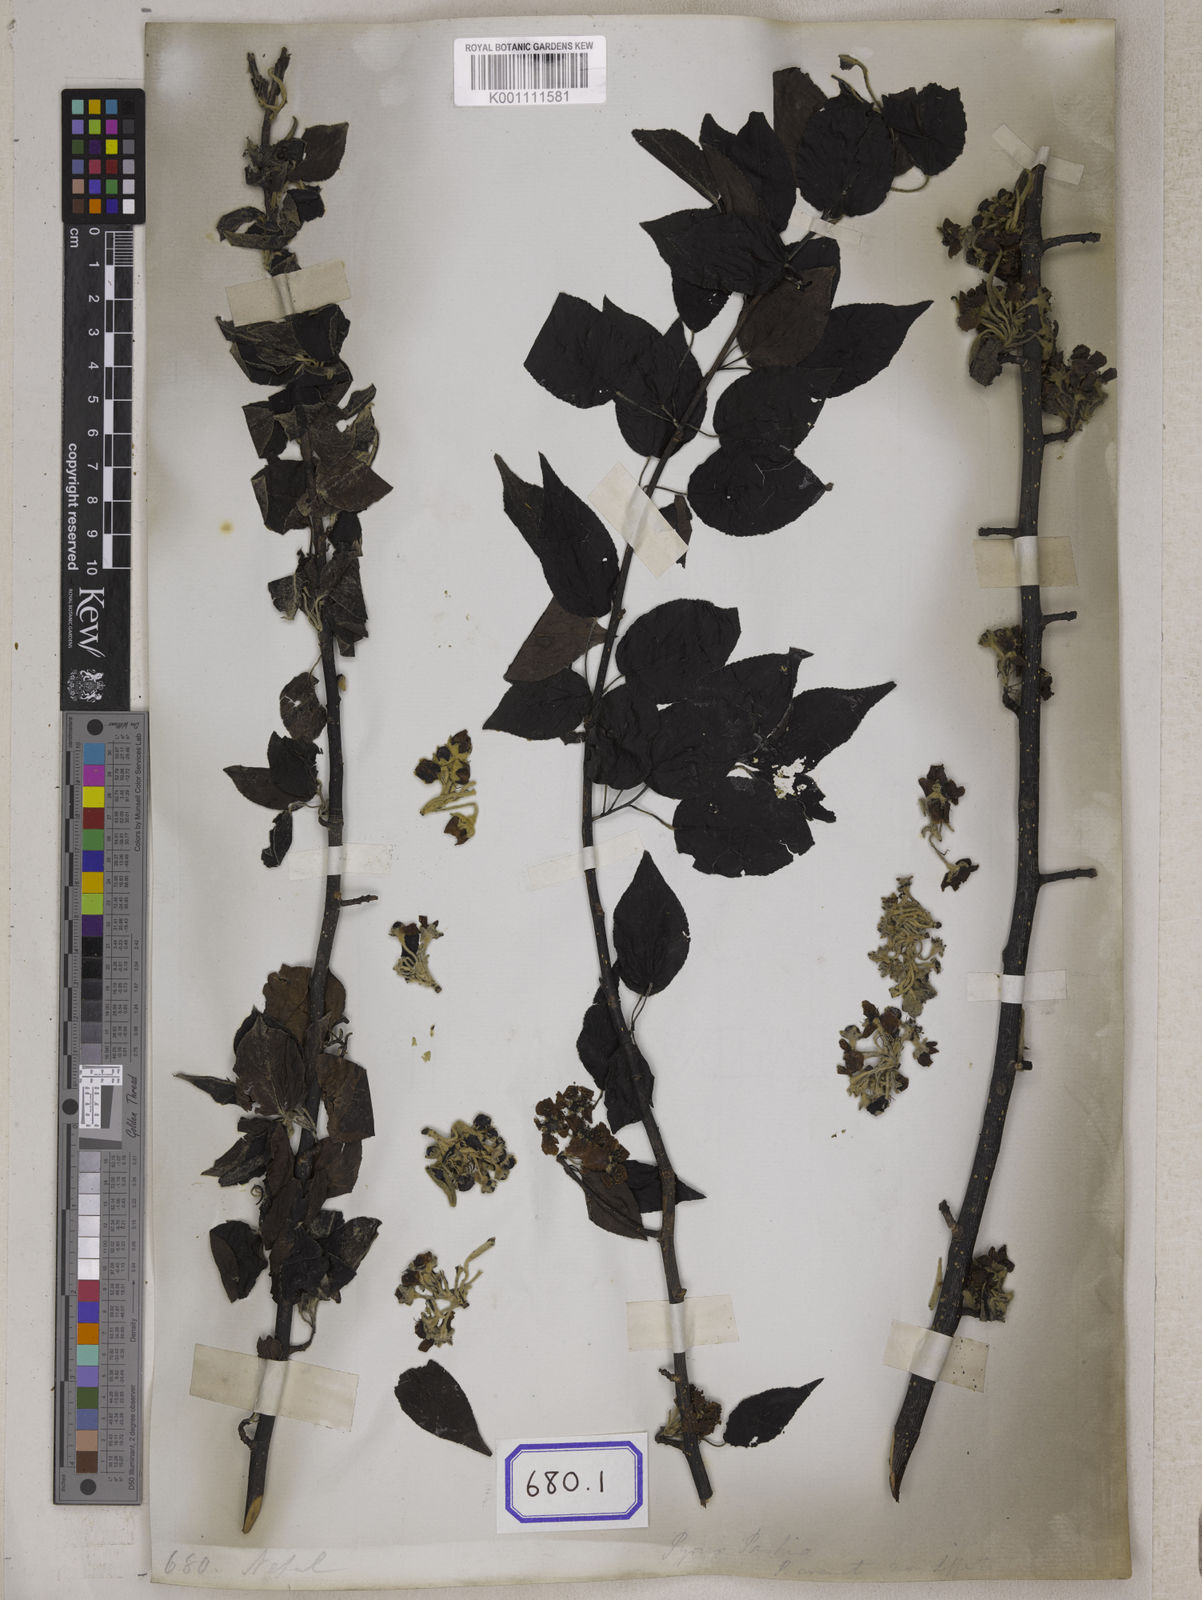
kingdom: Plantae
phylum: Tracheophyta
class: Magnoliopsida
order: Rosales
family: Rosaceae
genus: Pyrus
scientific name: Pyrus
